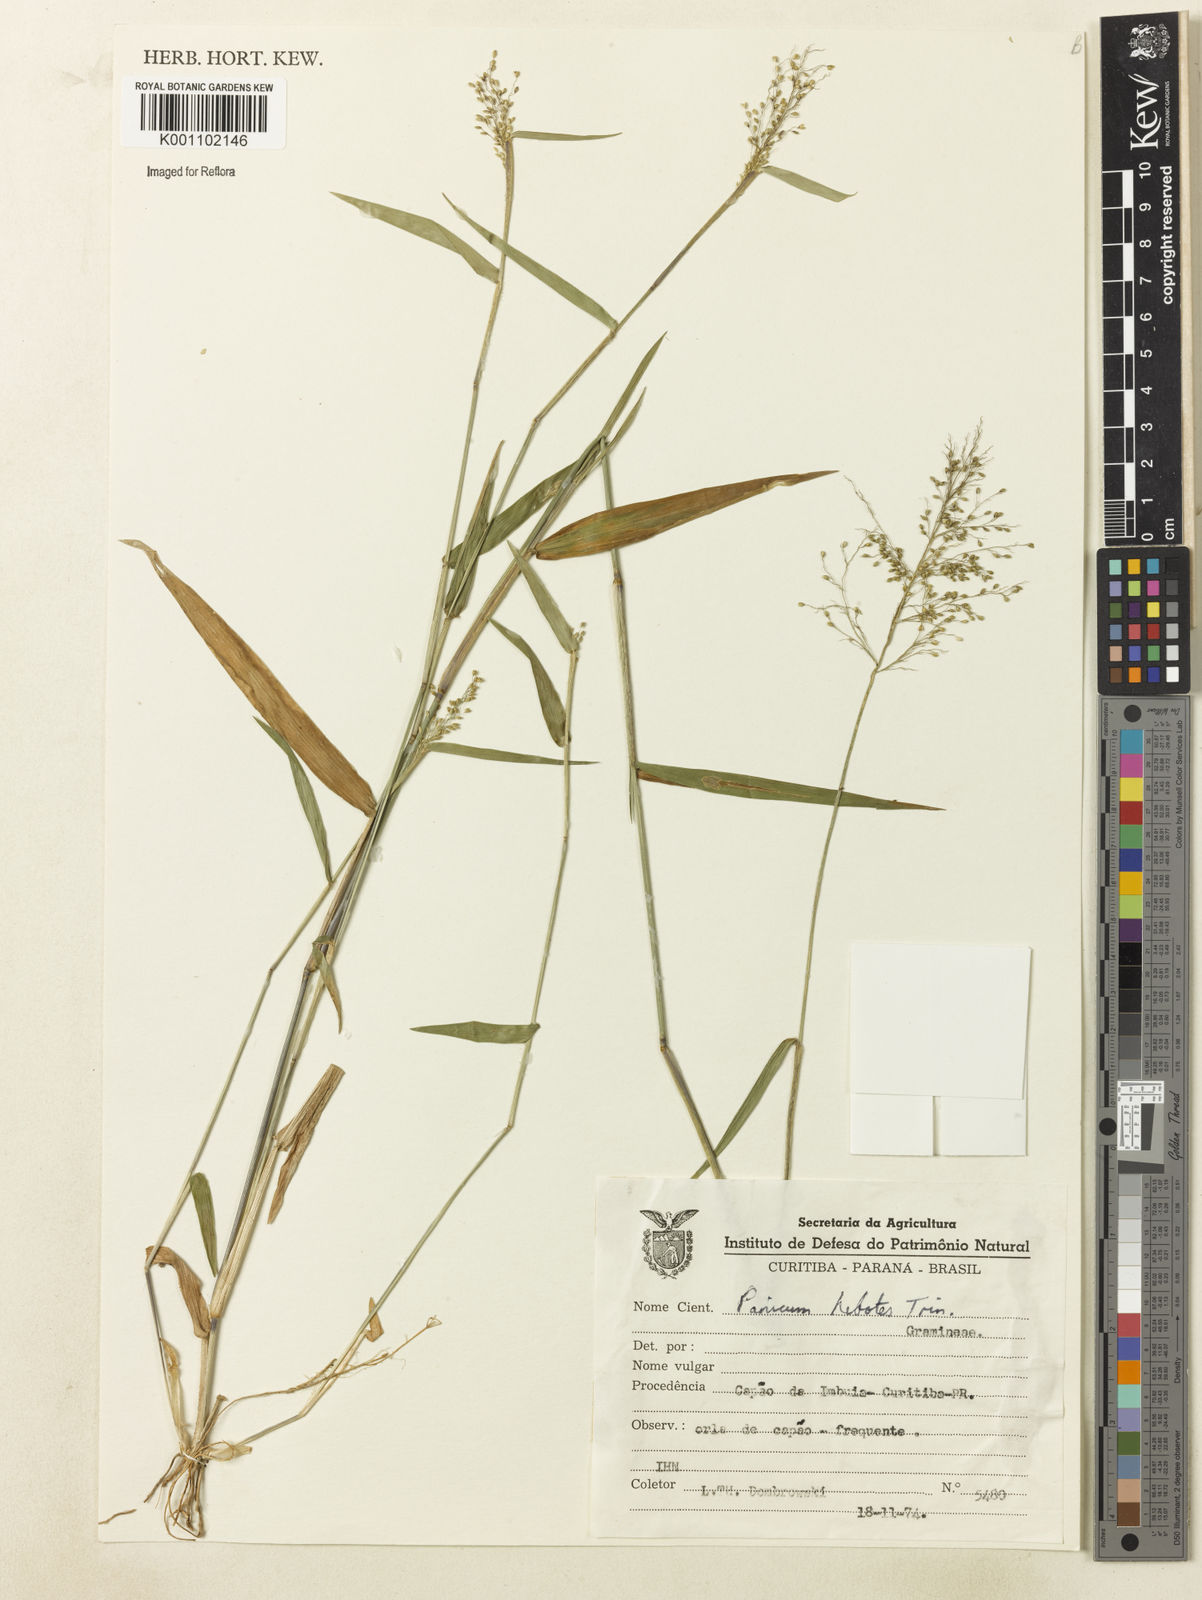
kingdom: Plantae
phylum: Tracheophyta
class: Liliopsida
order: Poales
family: Poaceae
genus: Dichanthelium
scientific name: Dichanthelium stigmosum
